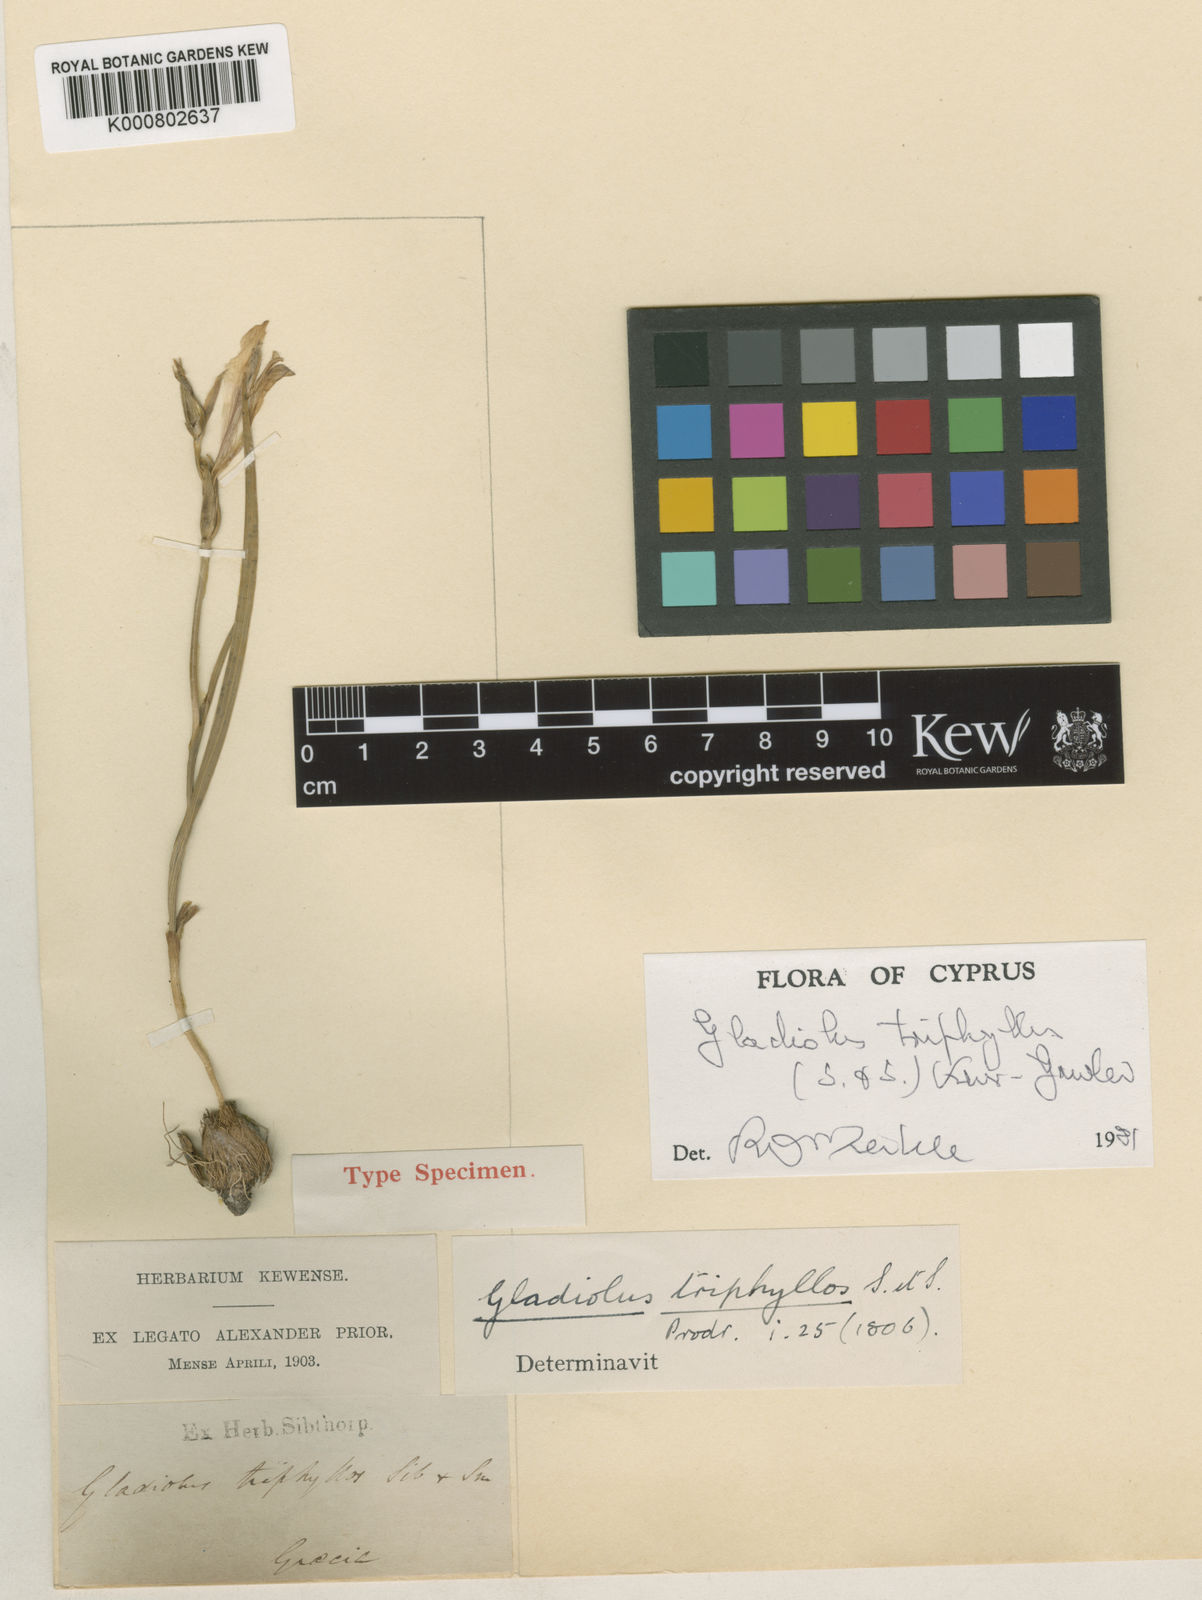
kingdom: Plantae
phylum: Tracheophyta
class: Liliopsida
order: Asparagales
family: Iridaceae
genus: Gladiolus
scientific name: Gladiolus triphyllus
